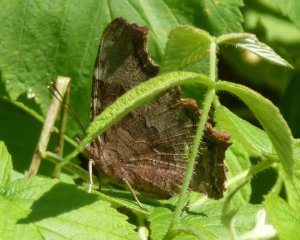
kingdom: Animalia
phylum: Arthropoda
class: Insecta
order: Lepidoptera
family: Nymphalidae
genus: Polygonia
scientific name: Polygonia vaualbum
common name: Compton Tortoiseshell
